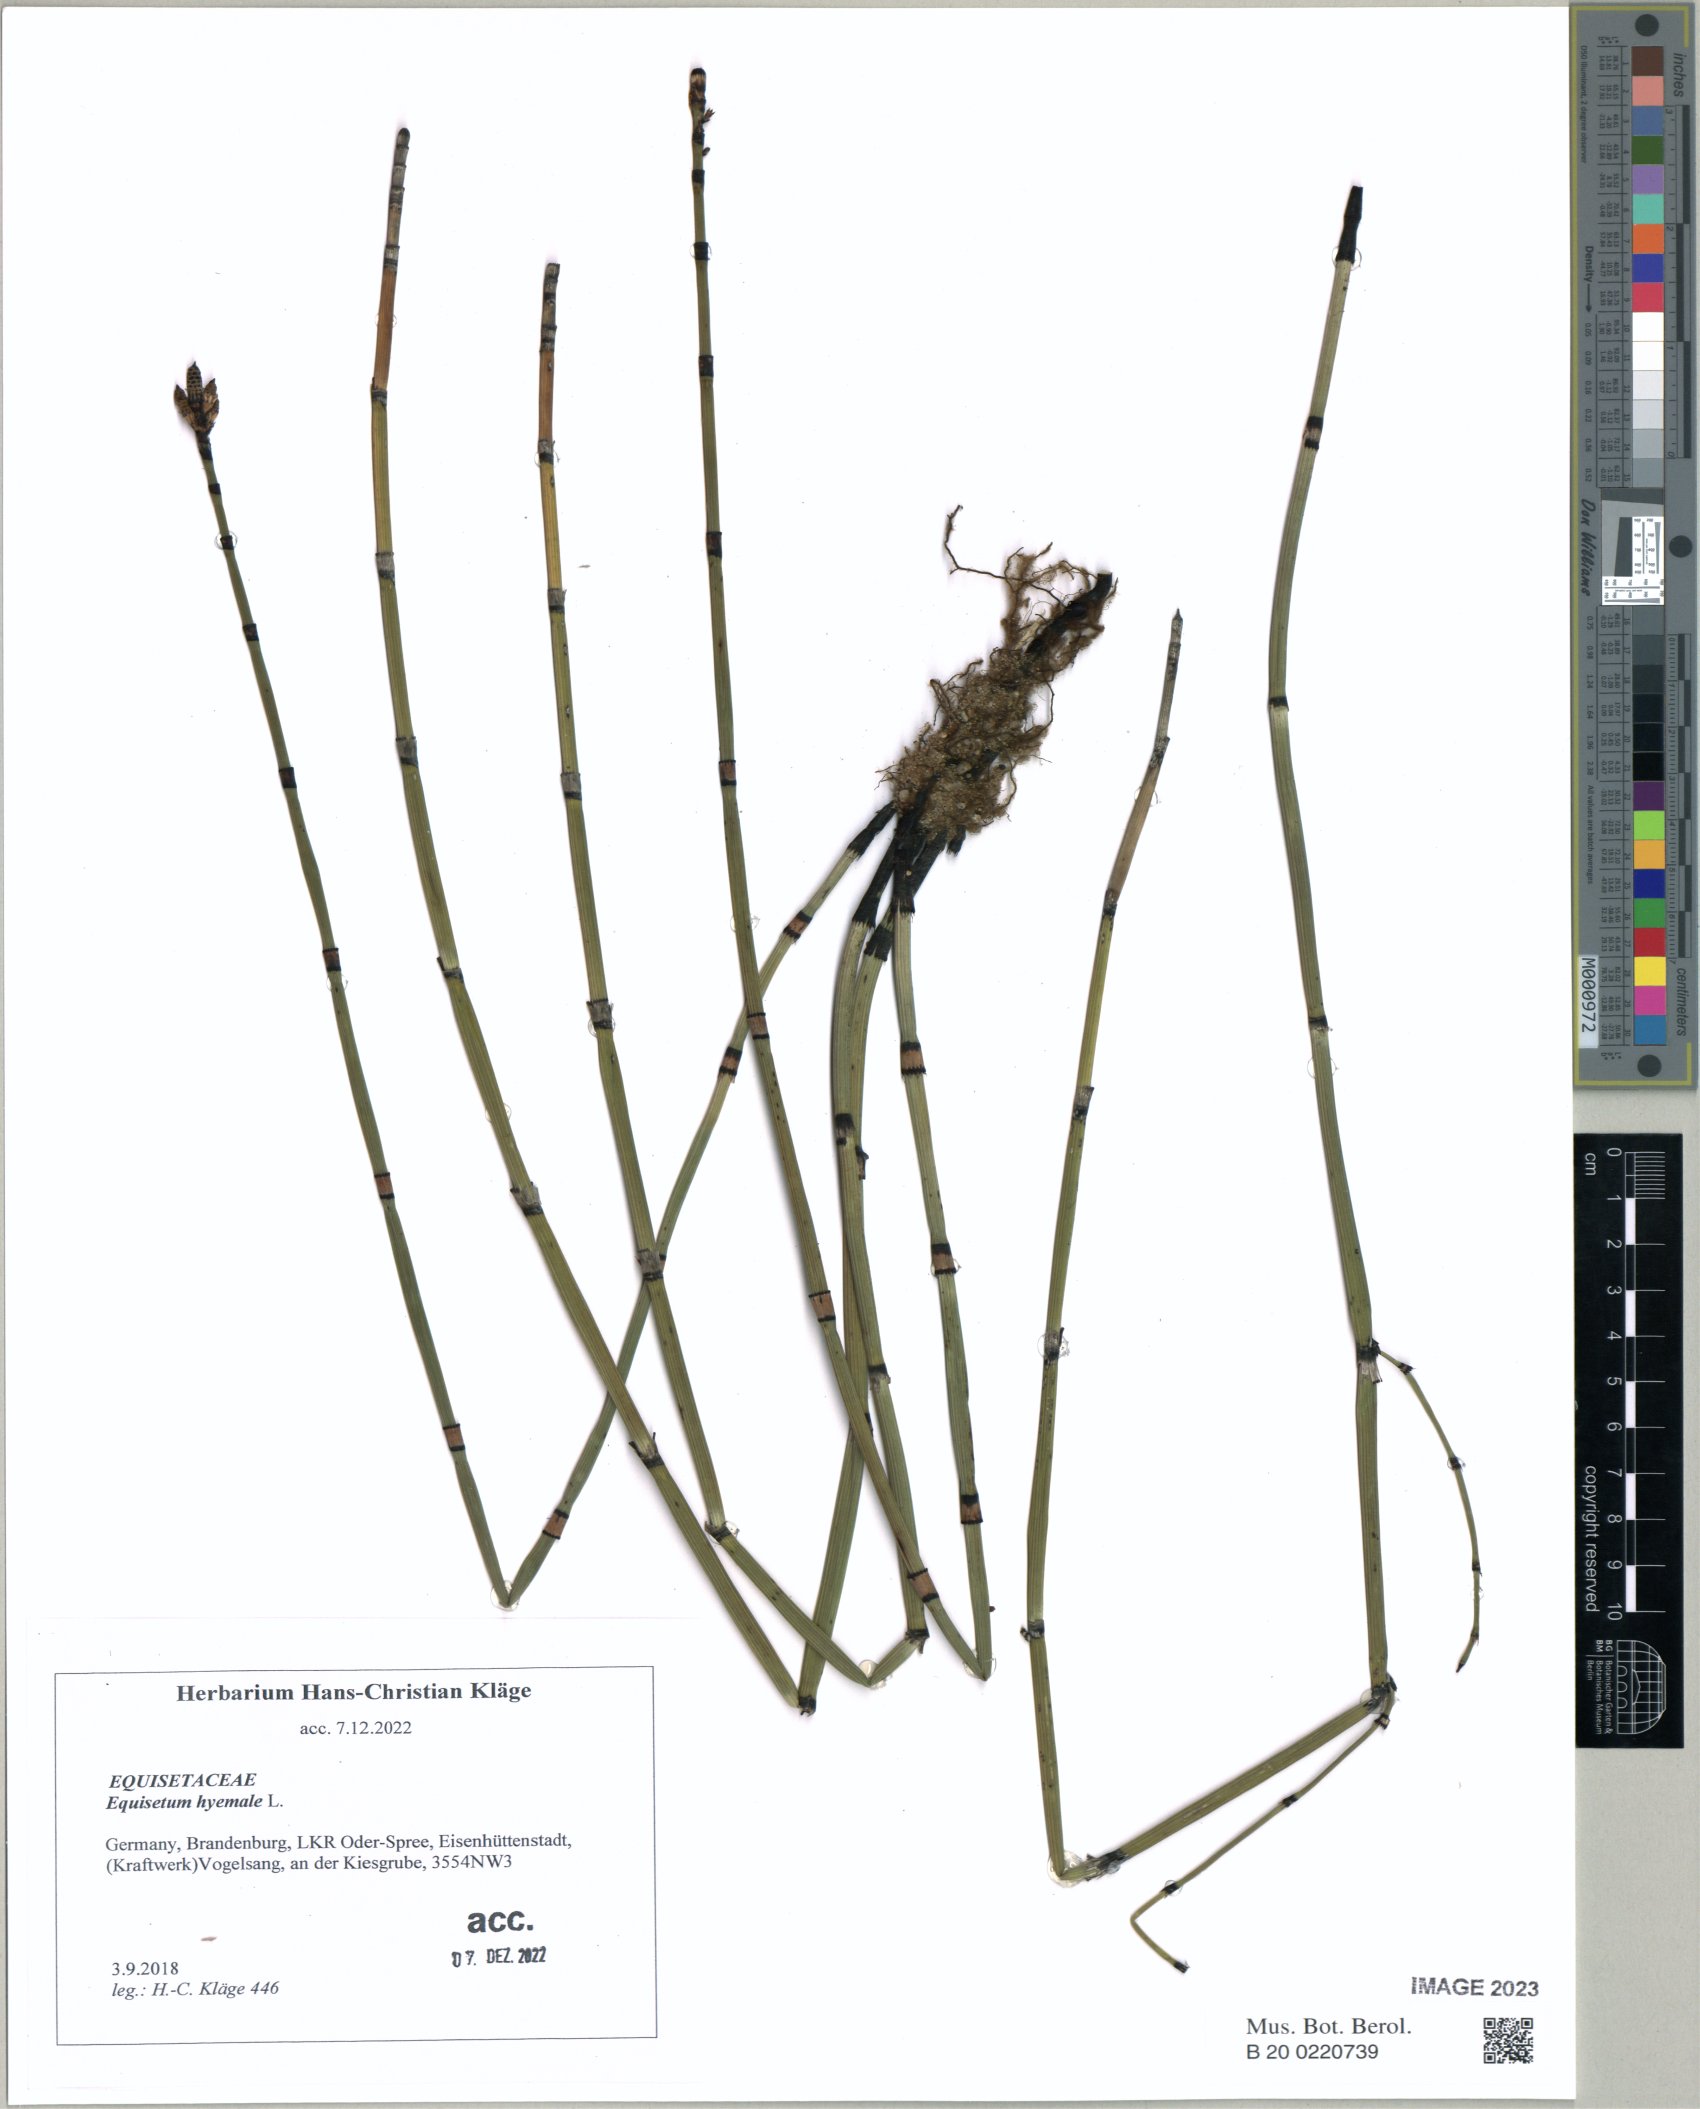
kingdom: Plantae
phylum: Tracheophyta
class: Polypodiopsida
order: Equisetales
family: Equisetaceae
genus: Equisetum
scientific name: Equisetum hyemale
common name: Rough horsetail
